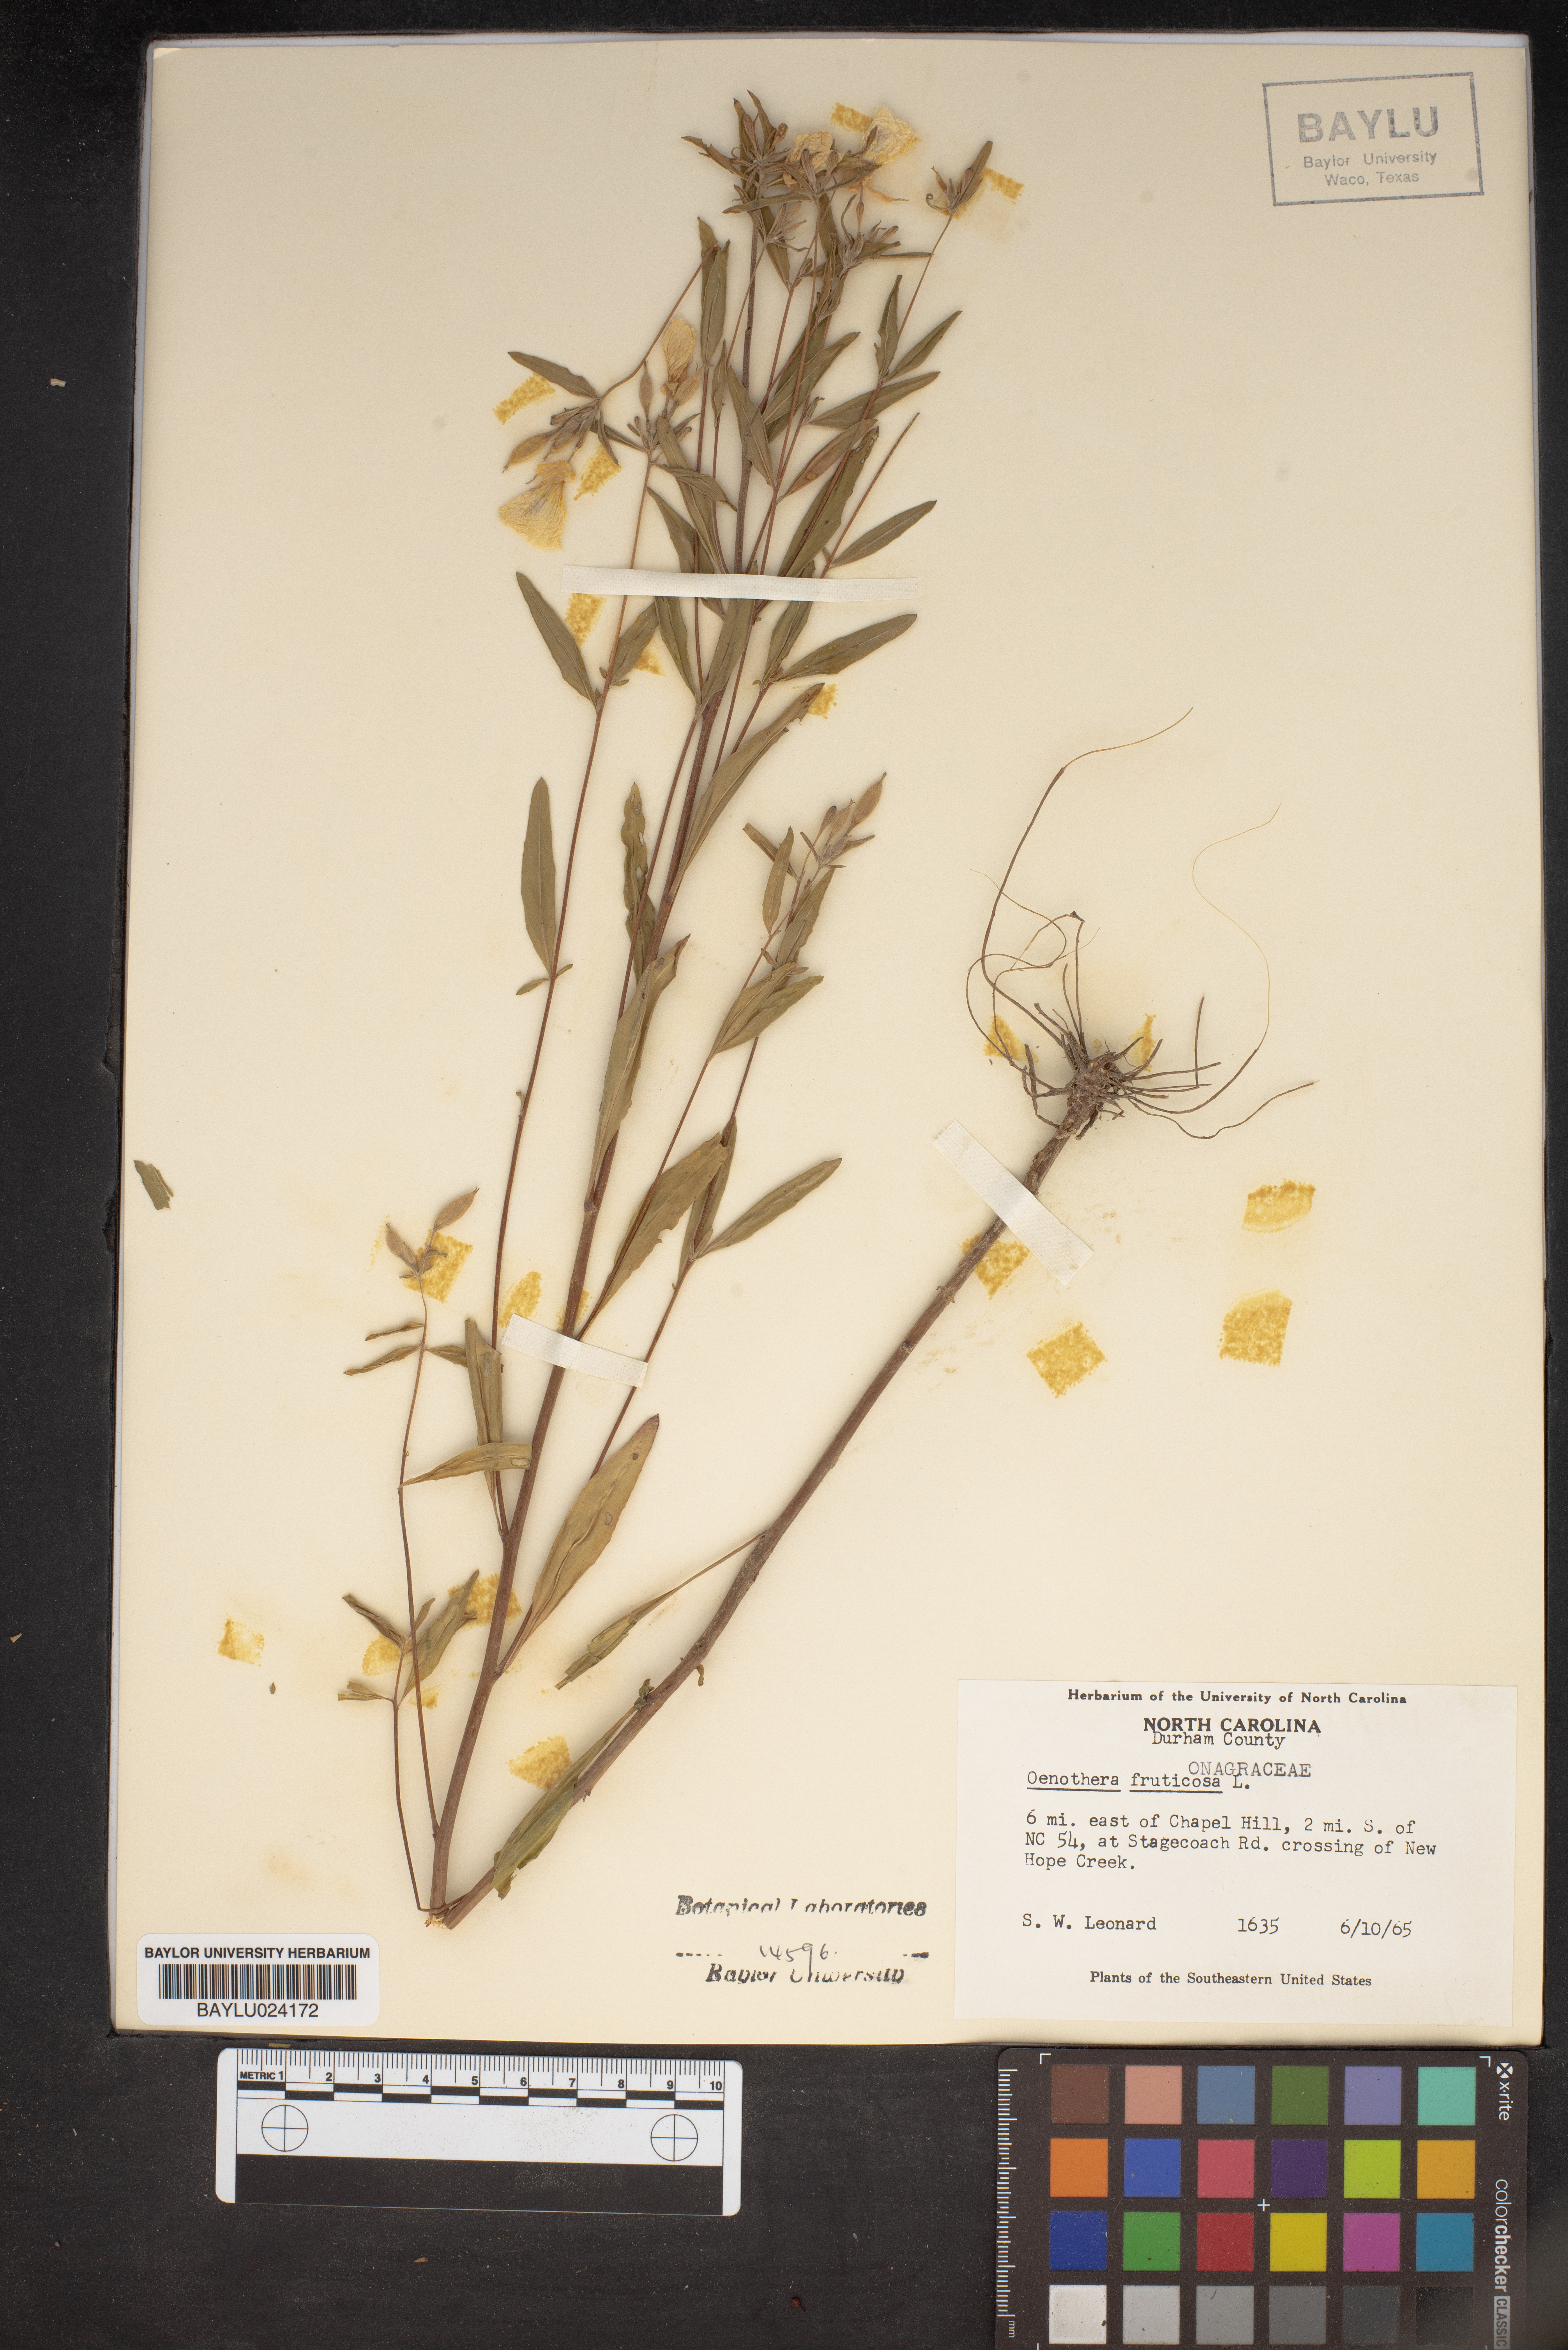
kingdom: Plantae
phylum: Tracheophyta
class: Magnoliopsida
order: Myrtales
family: Onagraceae
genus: Oenothera
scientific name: Oenothera fruticosa
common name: Southern sundrops
